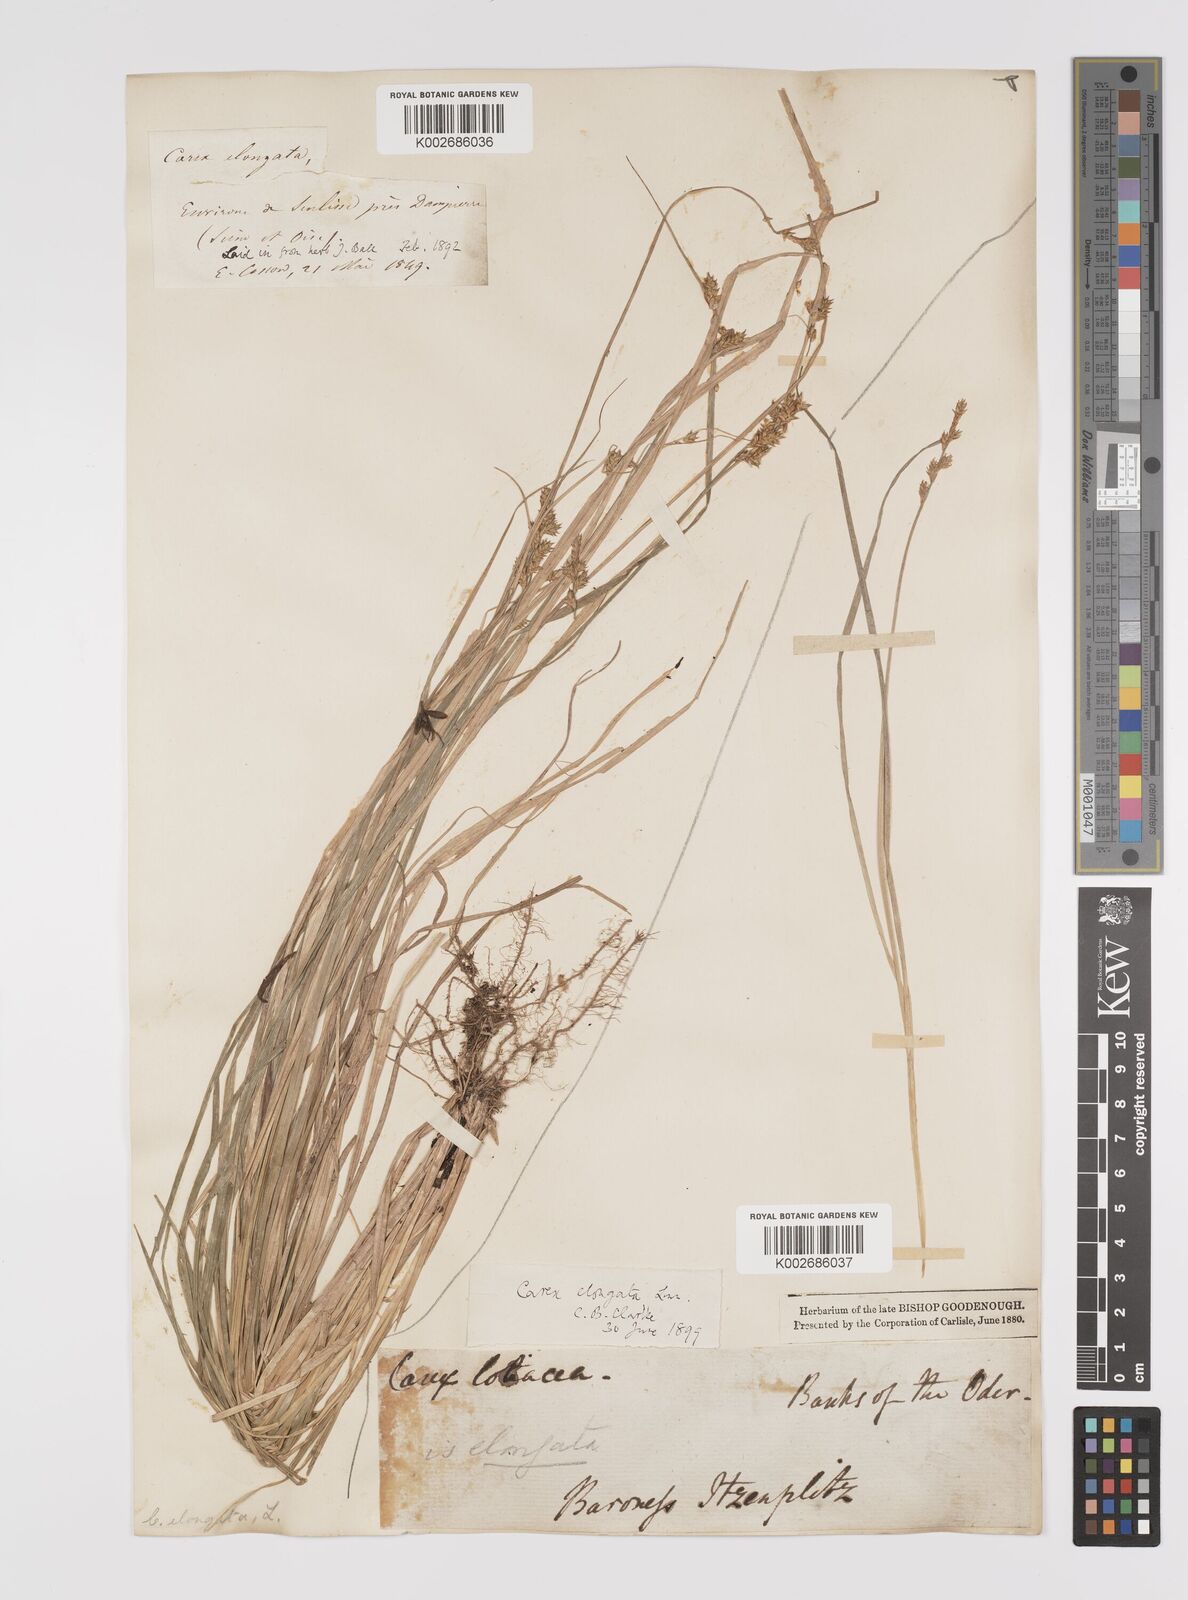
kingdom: Plantae
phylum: Tracheophyta
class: Liliopsida
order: Poales
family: Cyperaceae
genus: Carex
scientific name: Carex elongata
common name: Elongated sedge
